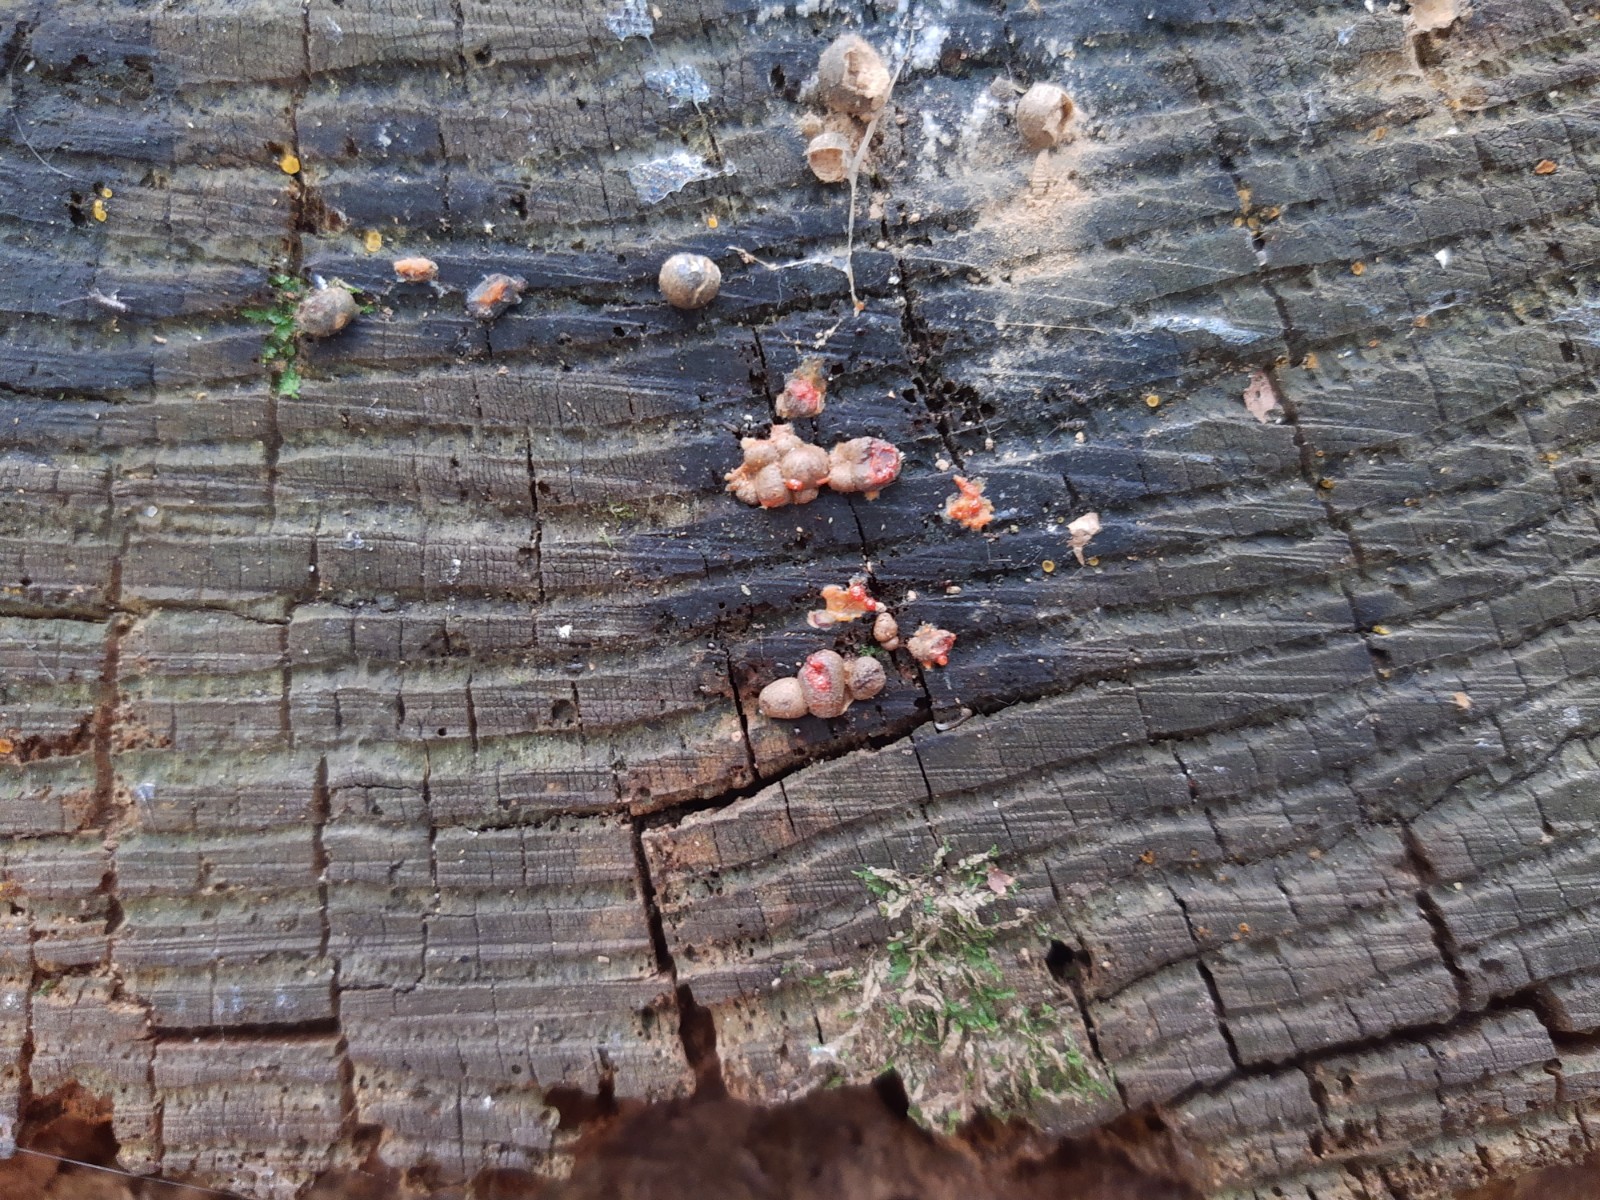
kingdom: Protozoa
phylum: Mycetozoa
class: Myxomycetes
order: Cribrariales
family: Tubiferaceae
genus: Lycogala
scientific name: Lycogala epidendrum
